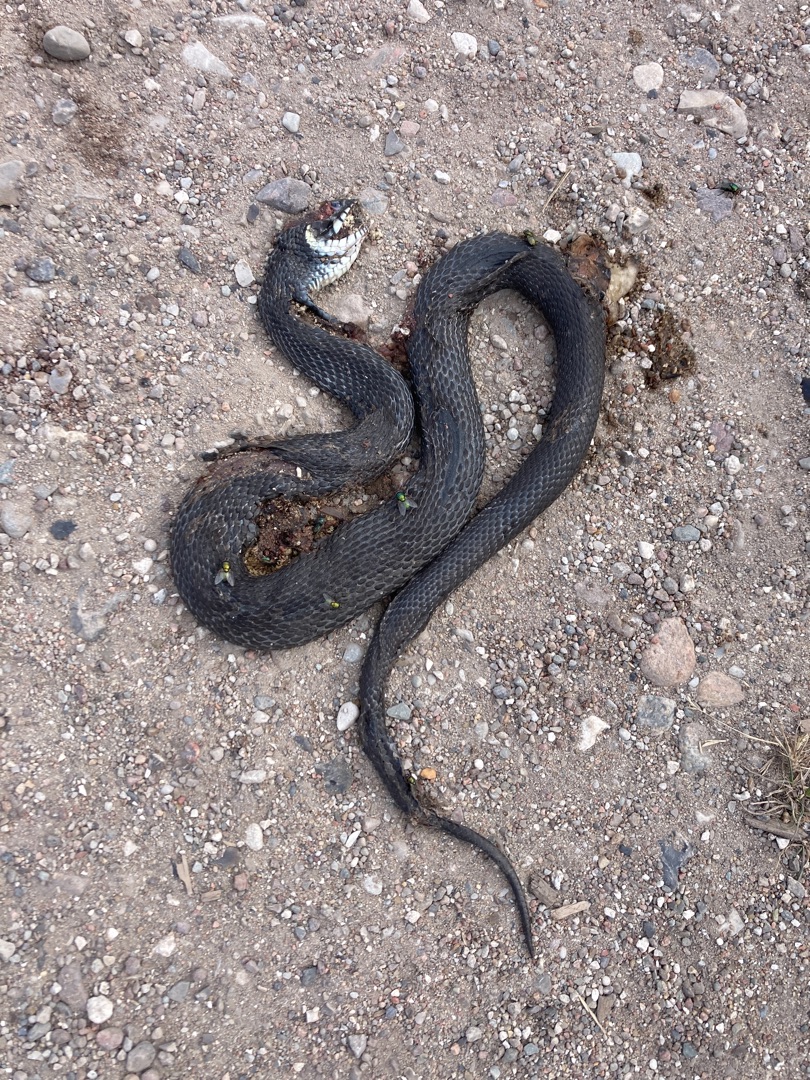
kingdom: Animalia
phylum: Chordata
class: Squamata
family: Colubridae
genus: Natrix
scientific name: Natrix natrix
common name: Snog
